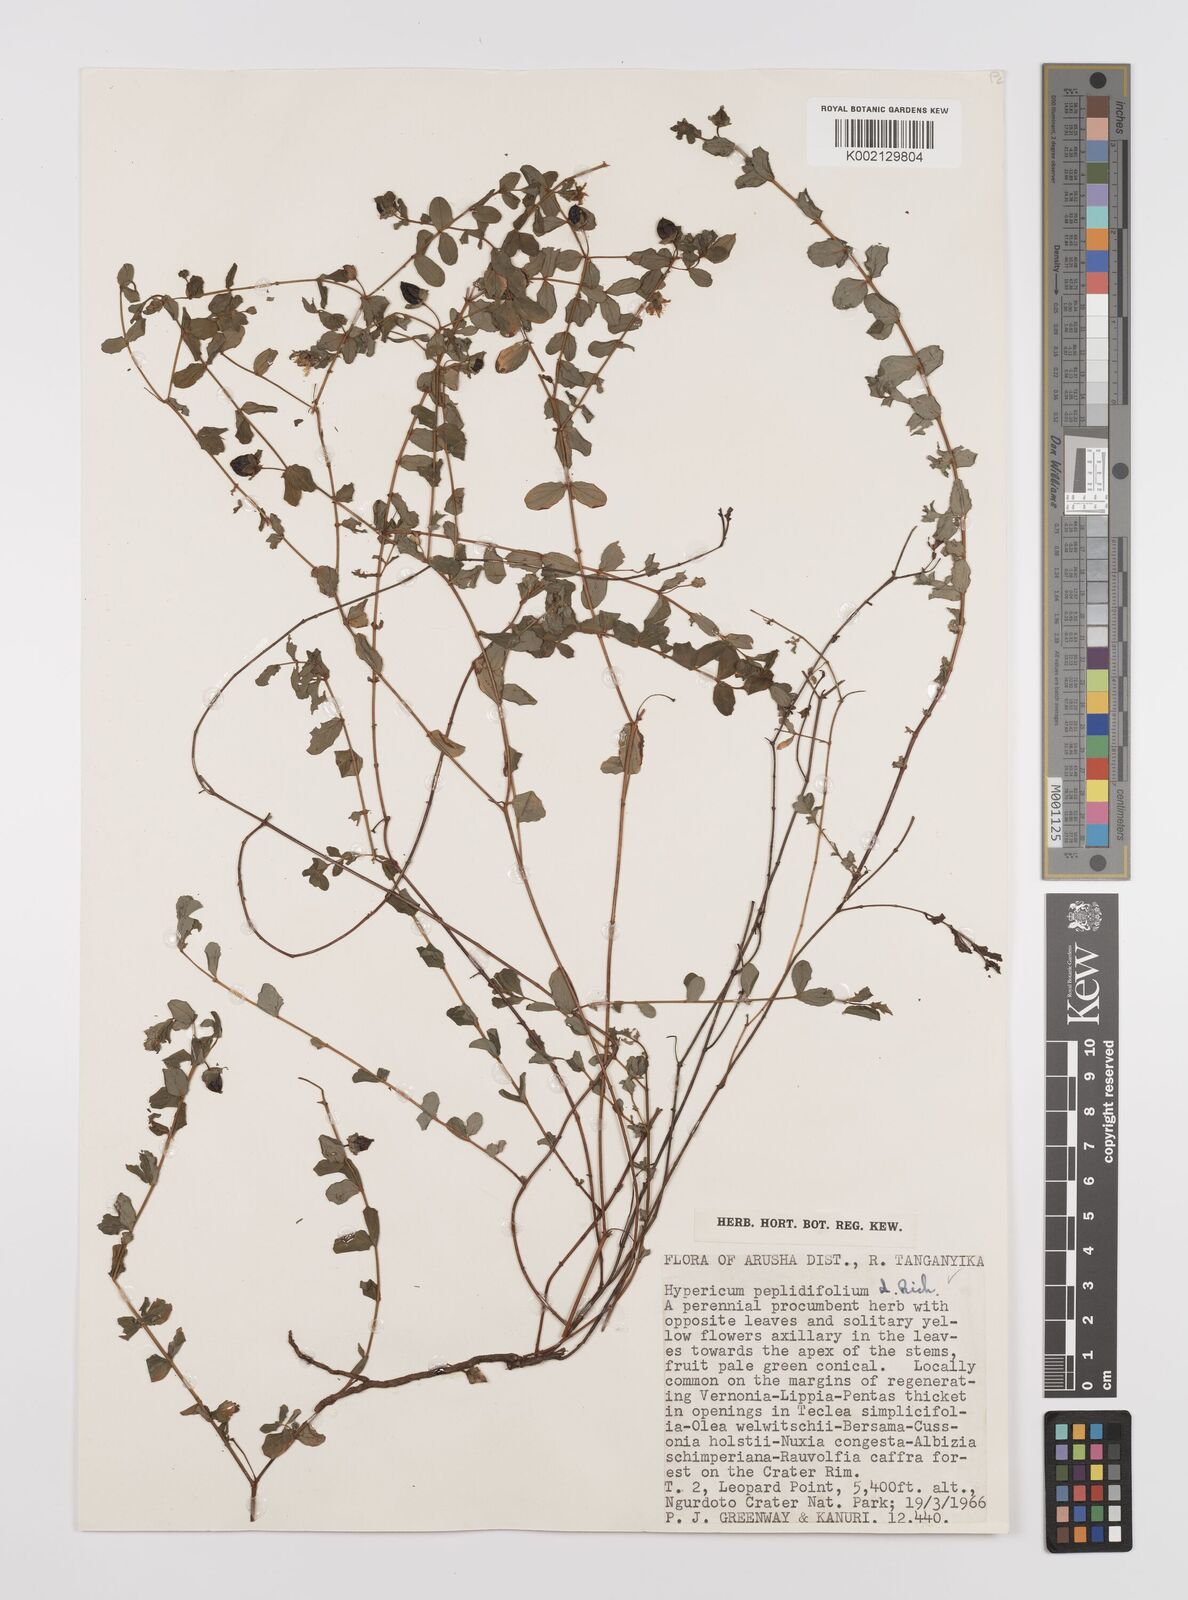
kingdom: Plantae
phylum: Tracheophyta
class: Magnoliopsida
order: Malpighiales
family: Hypericaceae
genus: Hypericum
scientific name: Hypericum peplidifolium
